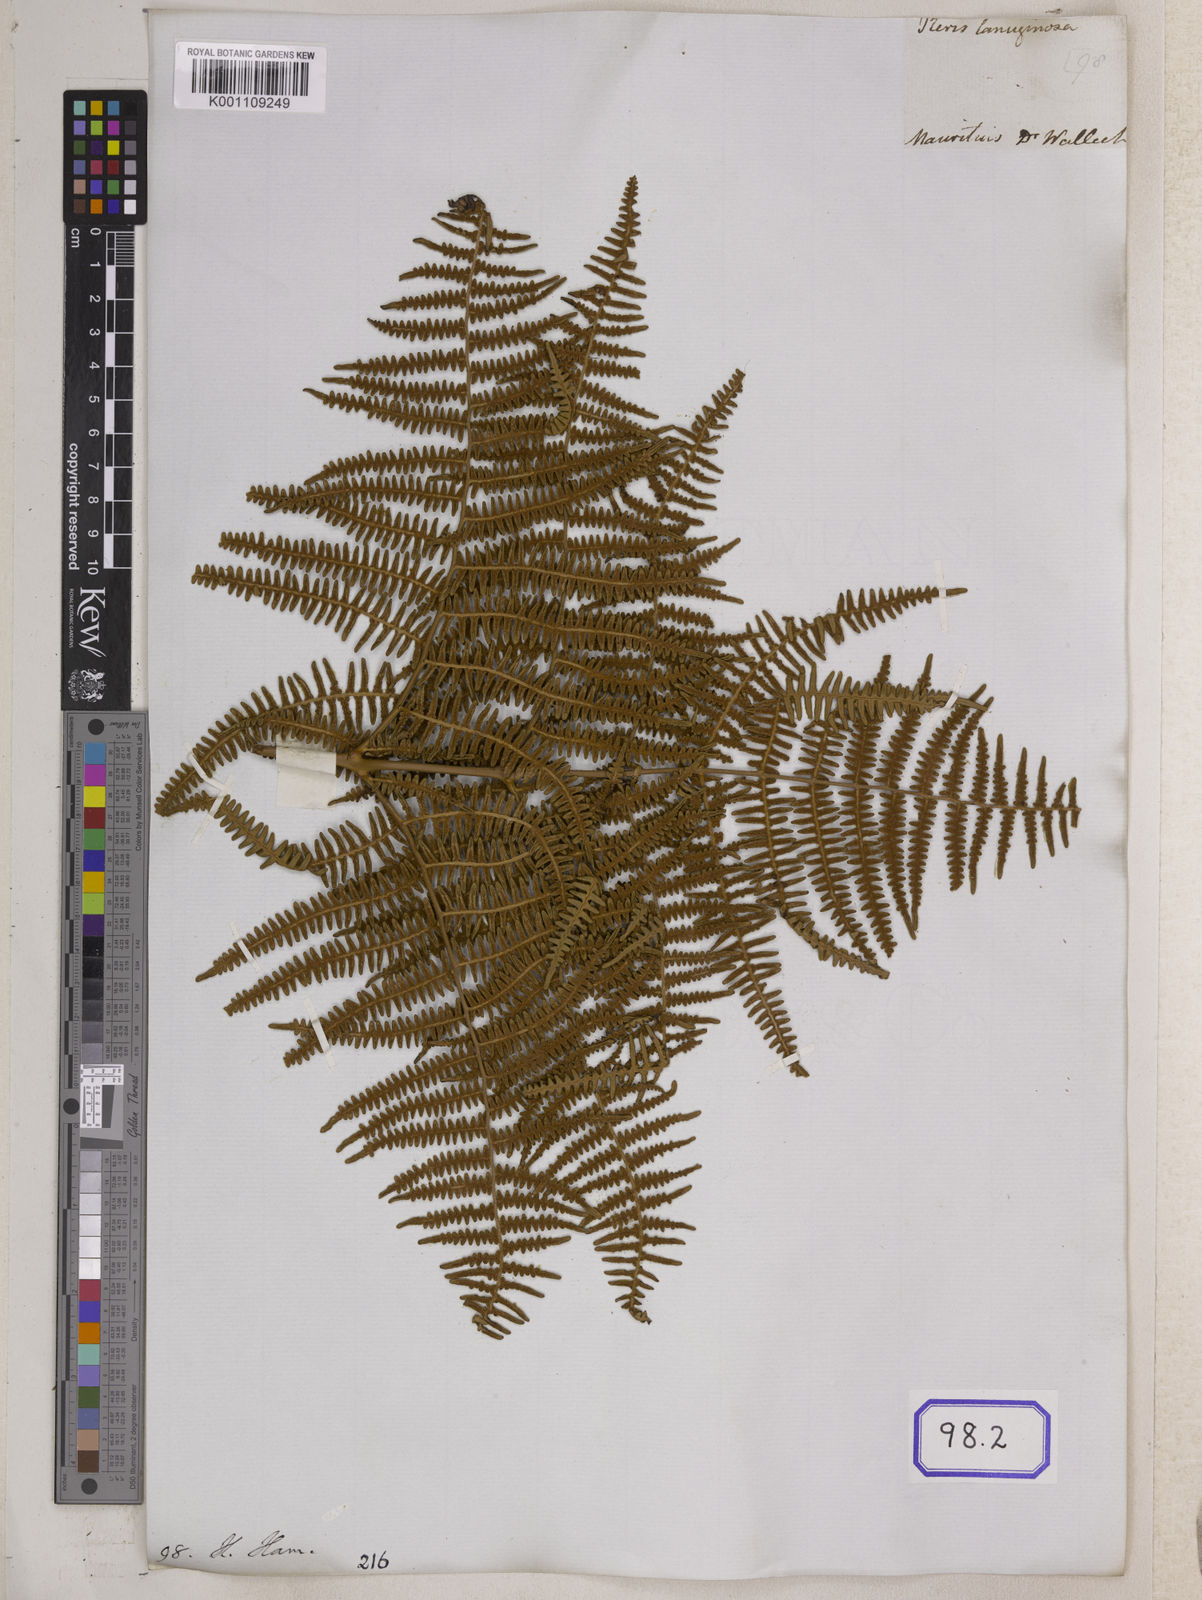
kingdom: Plantae
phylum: Tracheophyta
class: Polypodiopsida
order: Polypodiales
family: Pteridaceae
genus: Pteris
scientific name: Pteris
